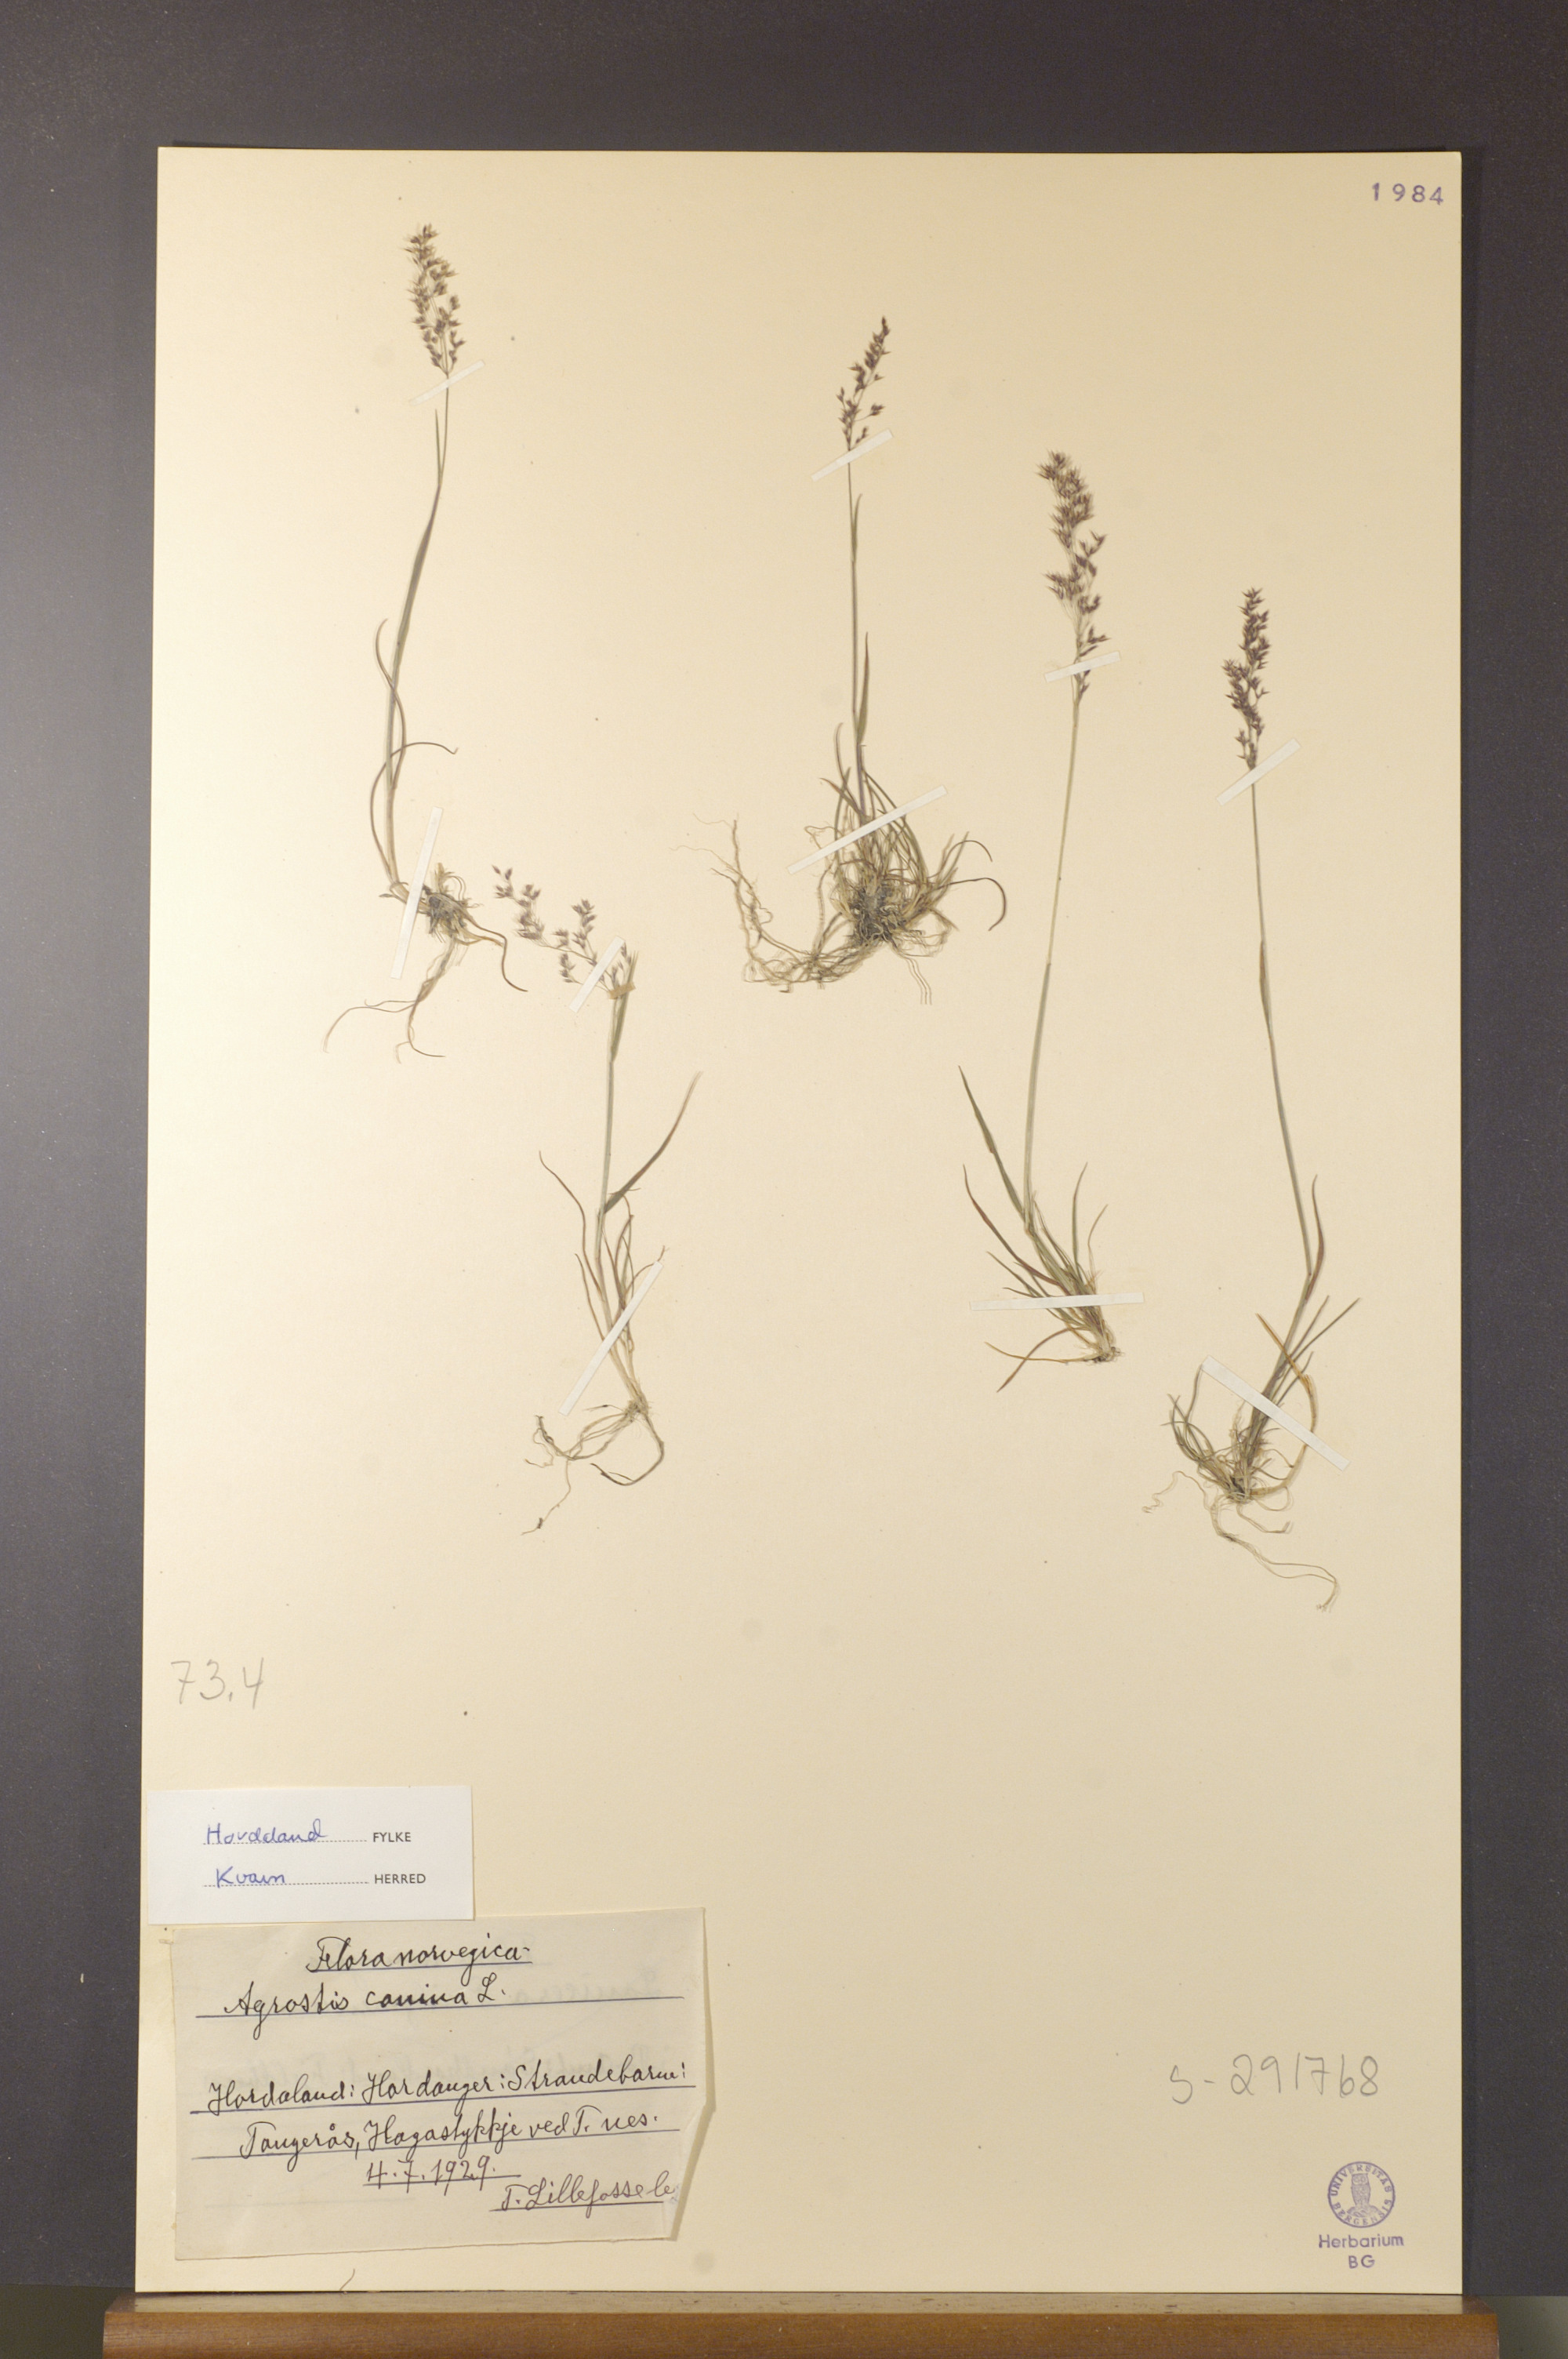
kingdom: Plantae
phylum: Tracheophyta
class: Liliopsida
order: Poales
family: Poaceae
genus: Agrostis
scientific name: Agrostis canina
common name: Velvet bent
